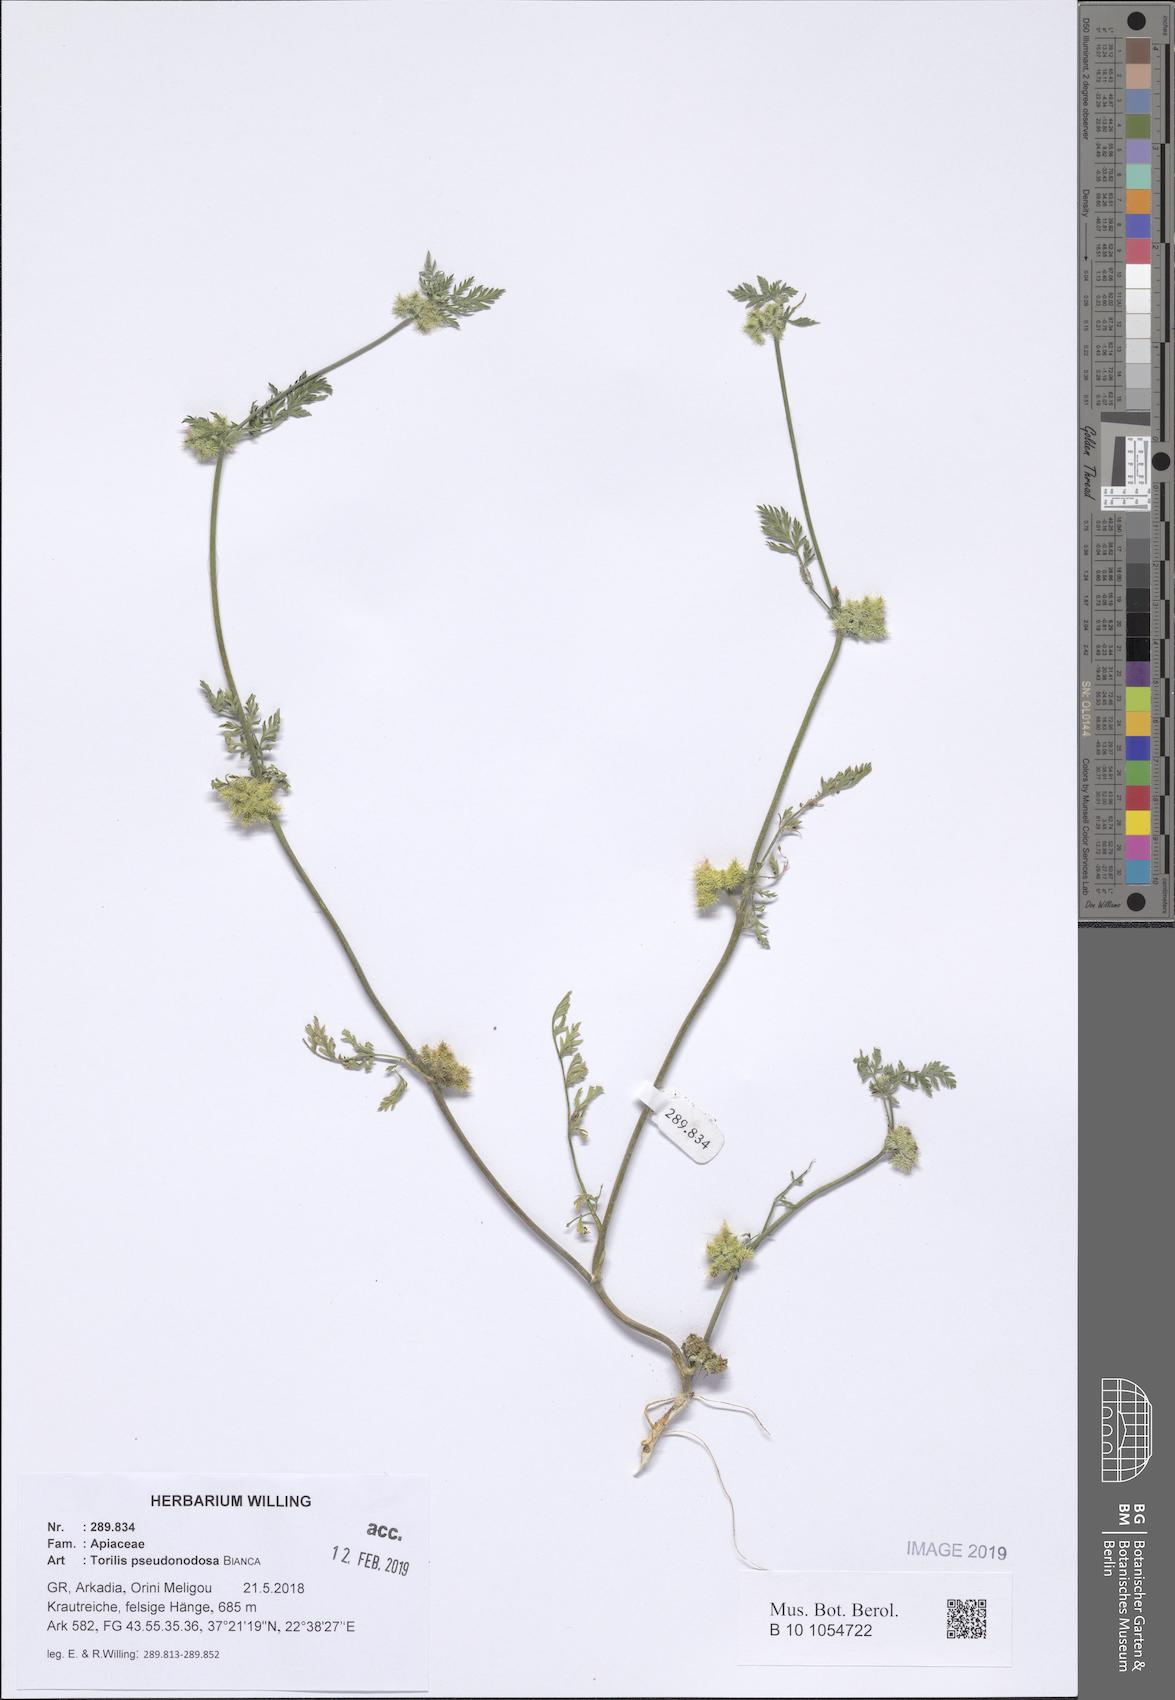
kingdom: Plantae
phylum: Tracheophyta
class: Magnoliopsida
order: Apiales
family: Apiaceae
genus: Torilis
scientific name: Torilis pseudonodosa
